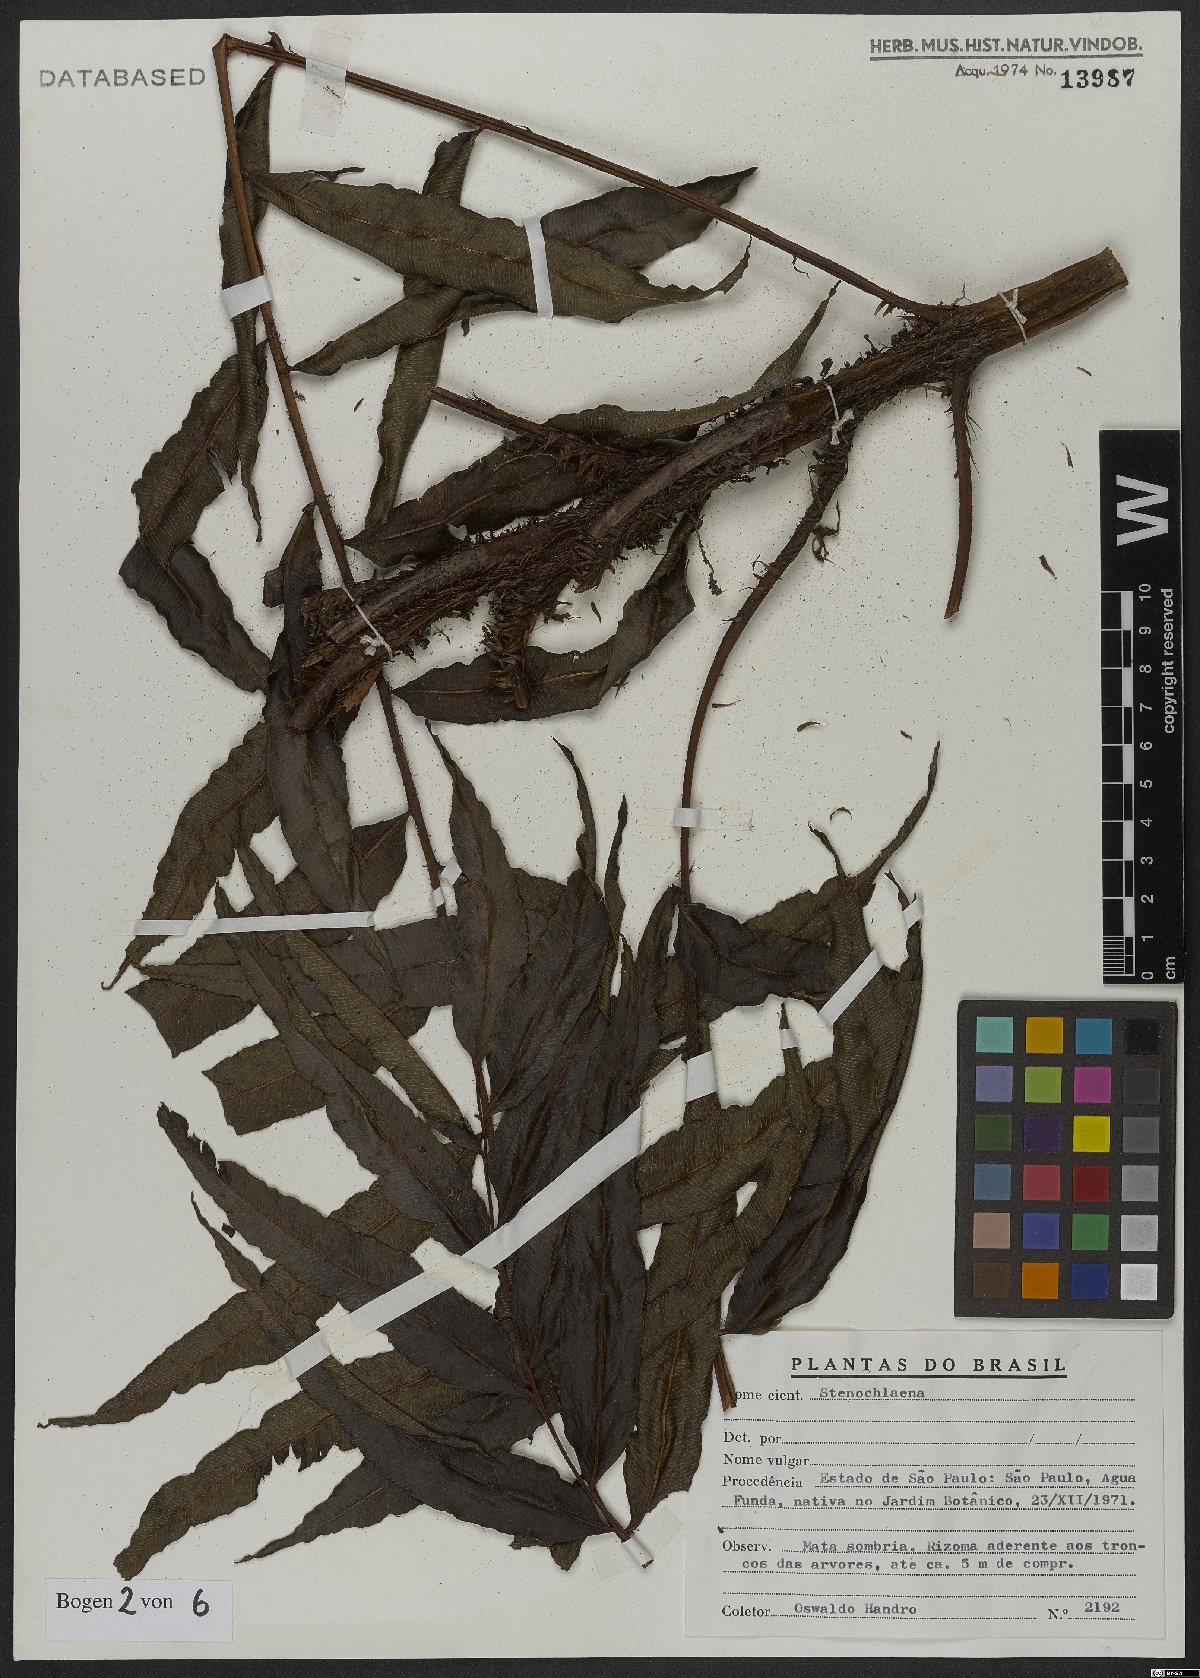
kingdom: Plantae
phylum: Tracheophyta
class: Polypodiopsida
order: Polypodiales
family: Blechnaceae
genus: Stenochlaena
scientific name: Stenochlaena
